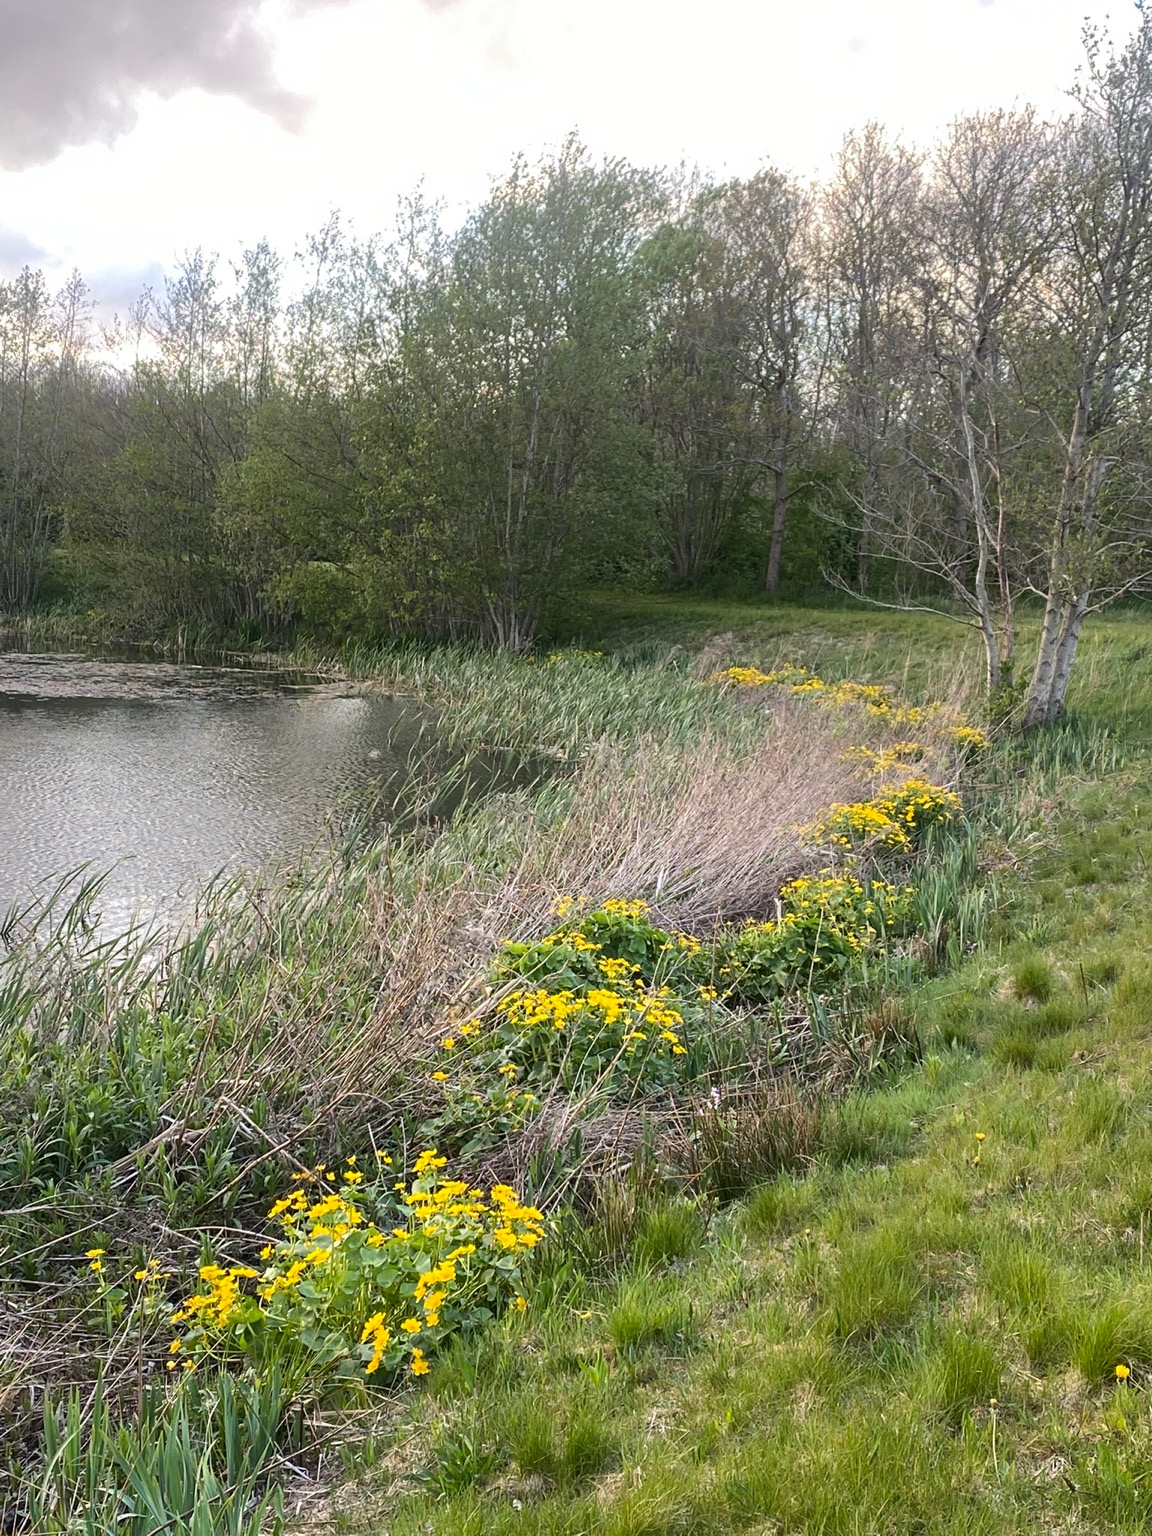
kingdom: Plantae
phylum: Tracheophyta
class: Magnoliopsida
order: Ranunculales
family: Ranunculaceae
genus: Caltha
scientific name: Caltha palustris
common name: Eng-kabbeleje
